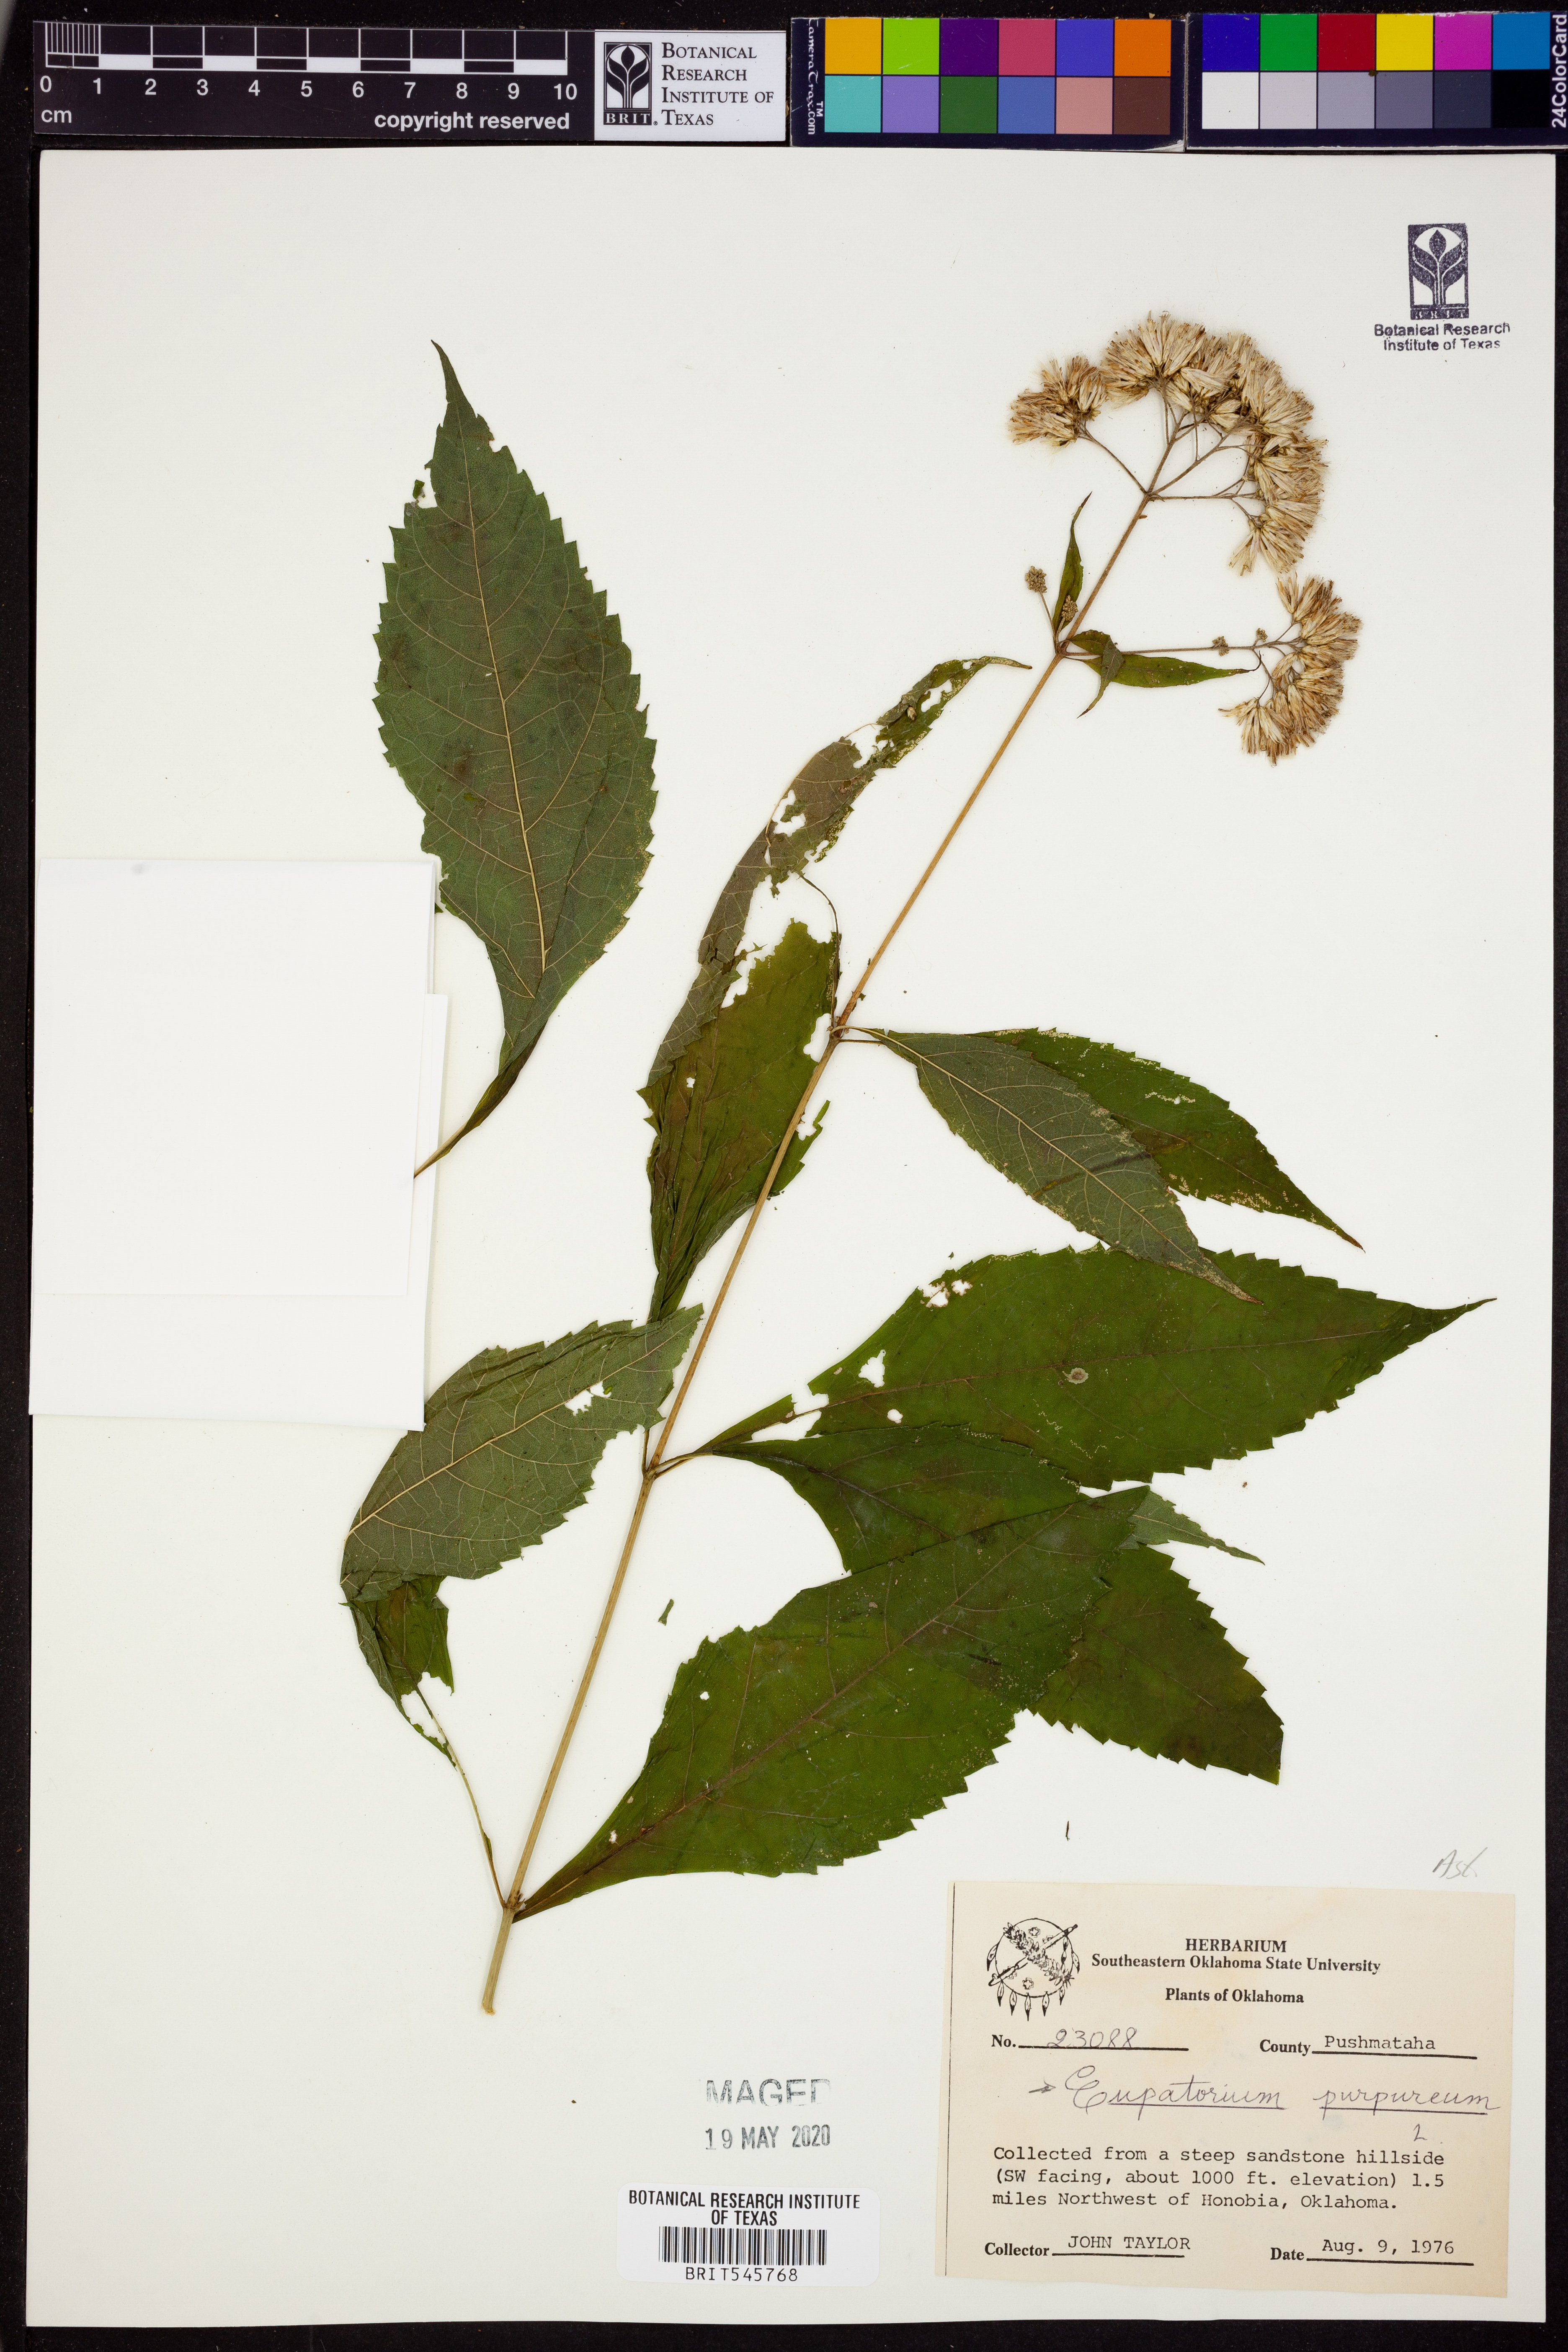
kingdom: Plantae
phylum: Tracheophyta
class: Magnoliopsida
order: Asterales
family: Asteraceae
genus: Eupatorium
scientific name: Eupatorium quaternum
